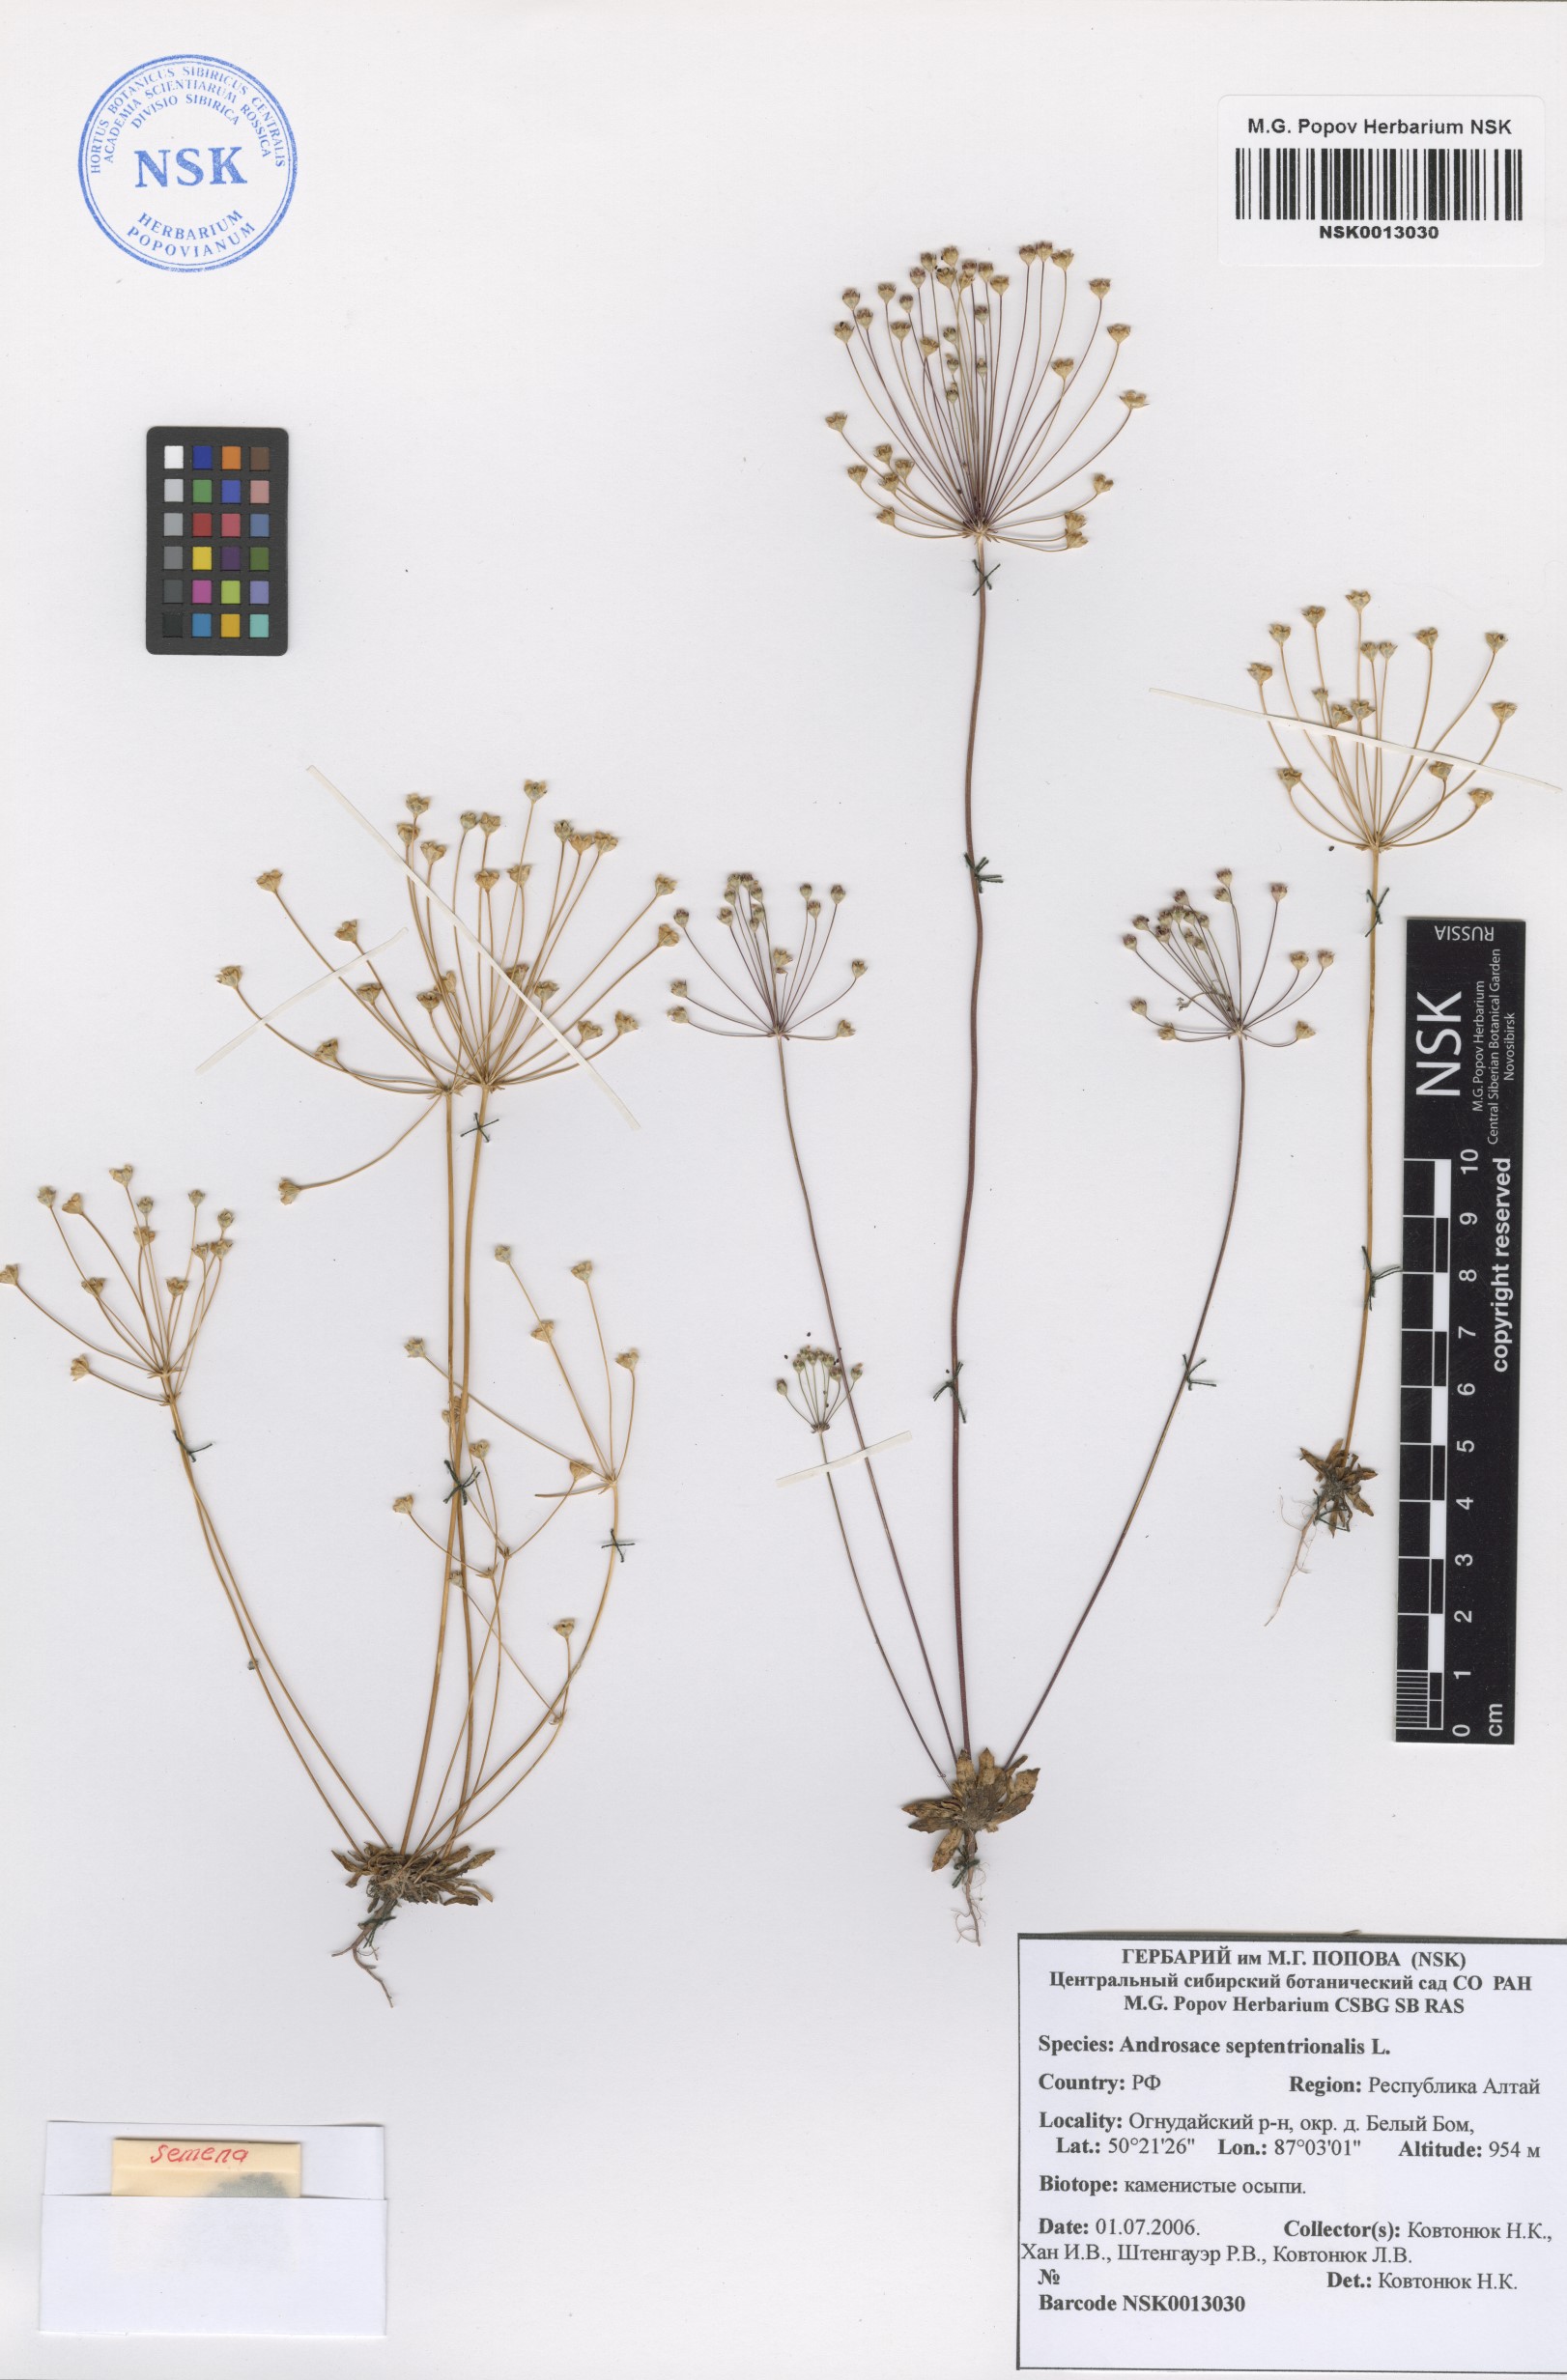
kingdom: Plantae
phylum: Tracheophyta
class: Magnoliopsida
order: Ericales
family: Primulaceae
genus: Androsace
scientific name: Androsace septentrionalis
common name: Hairy northern fairy-candelabra
